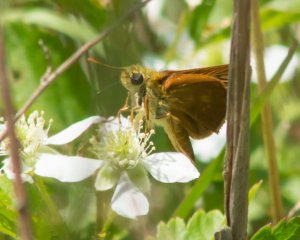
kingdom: Animalia
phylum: Arthropoda
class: Insecta
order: Lepidoptera
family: Hesperiidae
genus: Wallengrenia
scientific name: Wallengrenia otho
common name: Southern Broken-Dash
